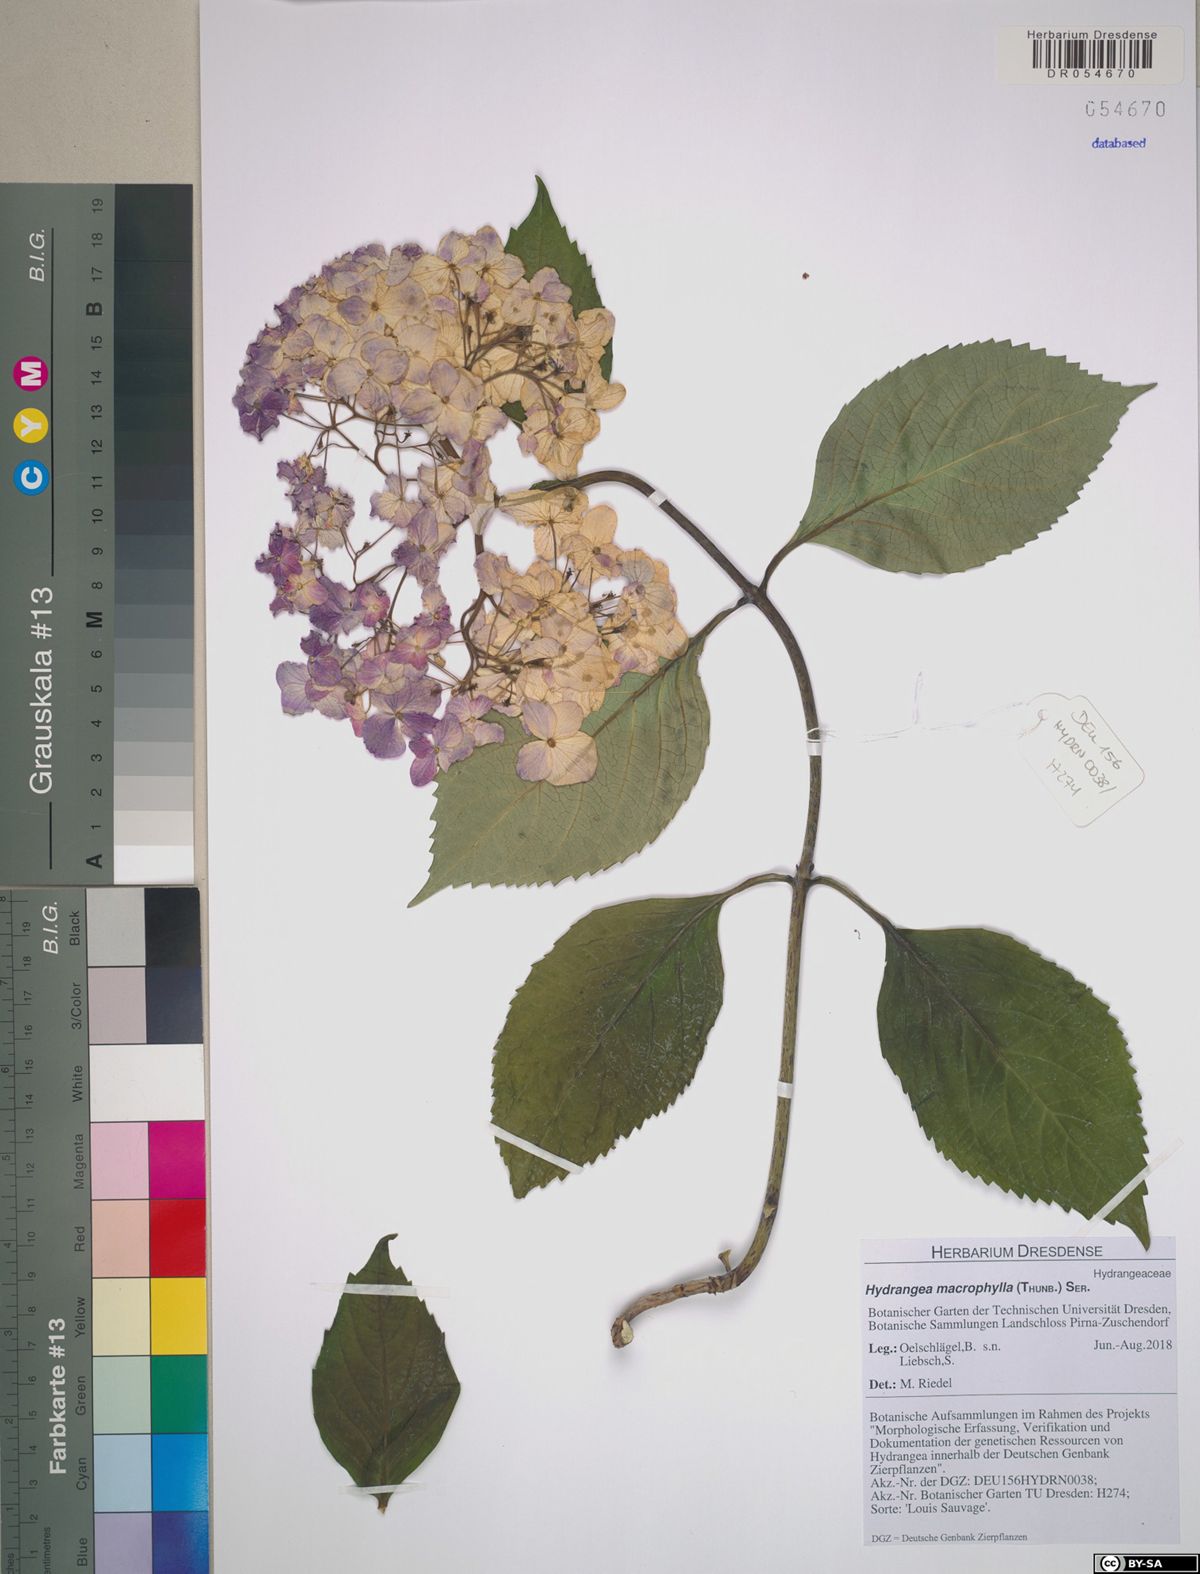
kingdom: Plantae
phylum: Tracheophyta
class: Magnoliopsida
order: Cornales
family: Hydrangeaceae
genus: Hydrangea
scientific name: Hydrangea macrophylla
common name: Hydrangea
